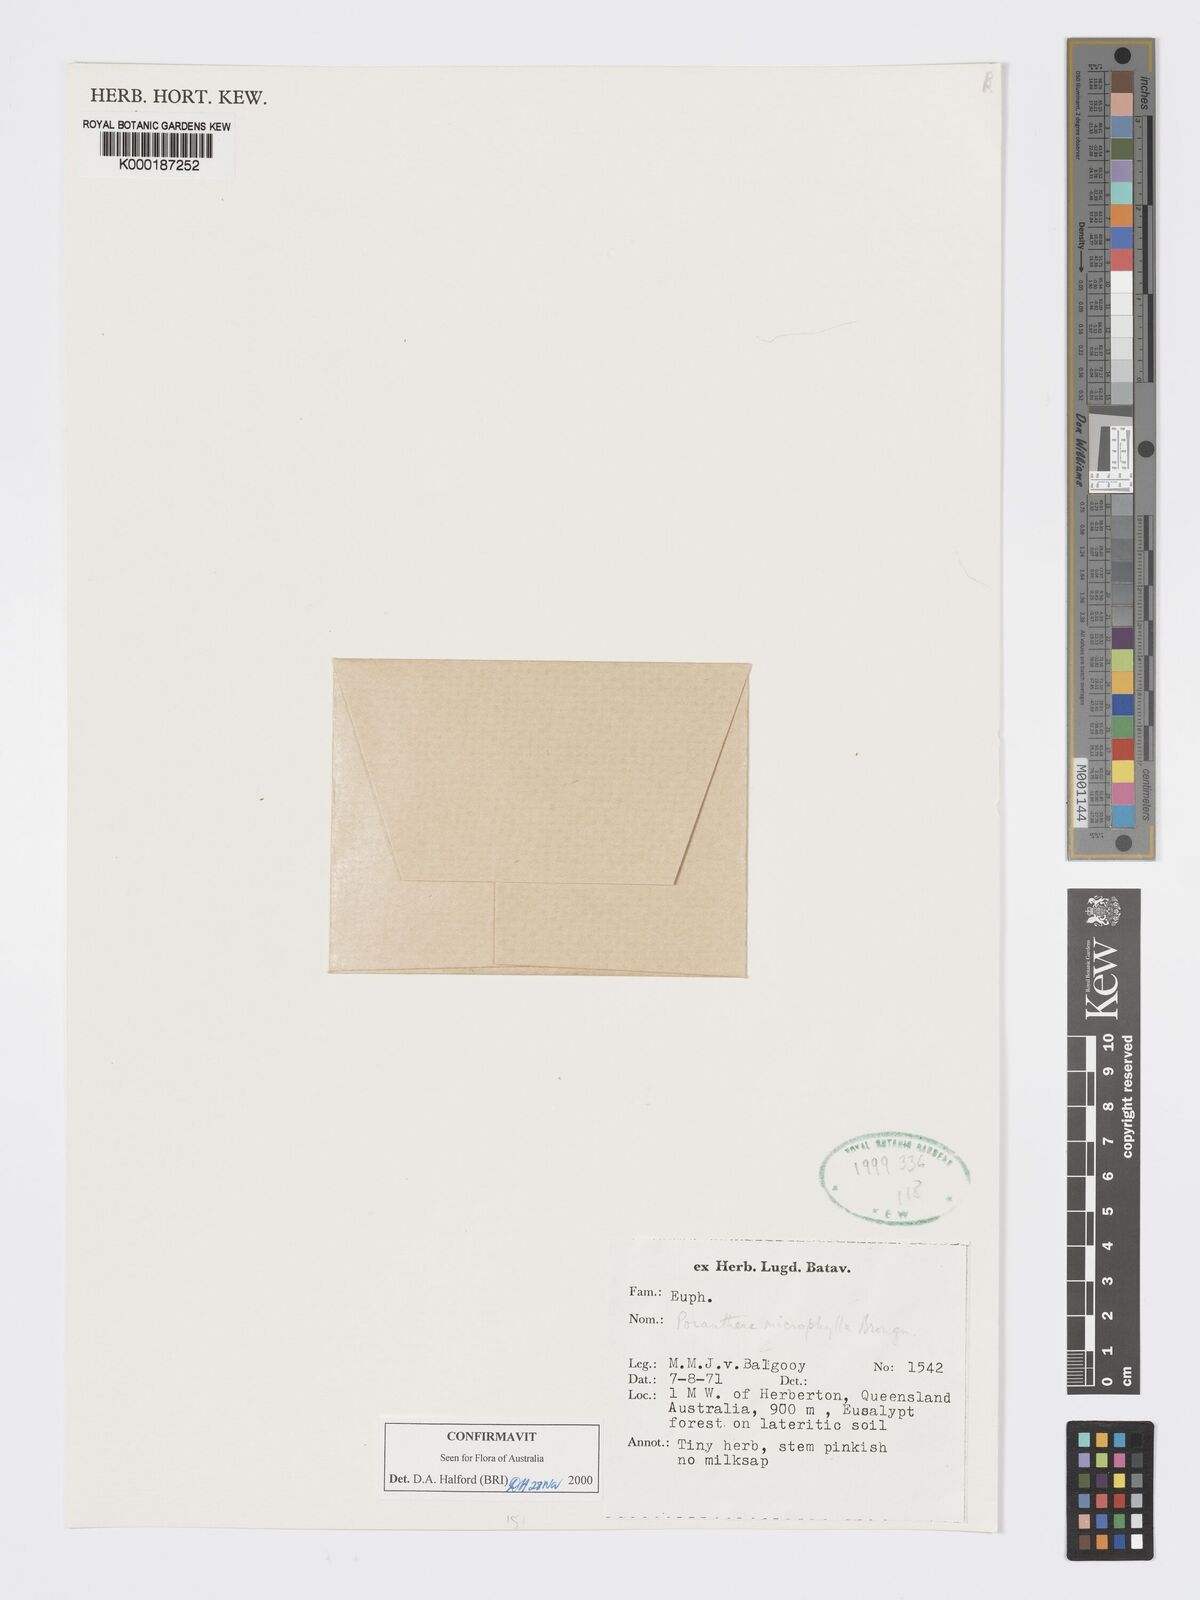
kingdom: Plantae
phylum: Tracheophyta
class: Magnoliopsida
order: Malpighiales
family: Phyllanthaceae
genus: Poranthera
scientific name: Poranthera microphylla
